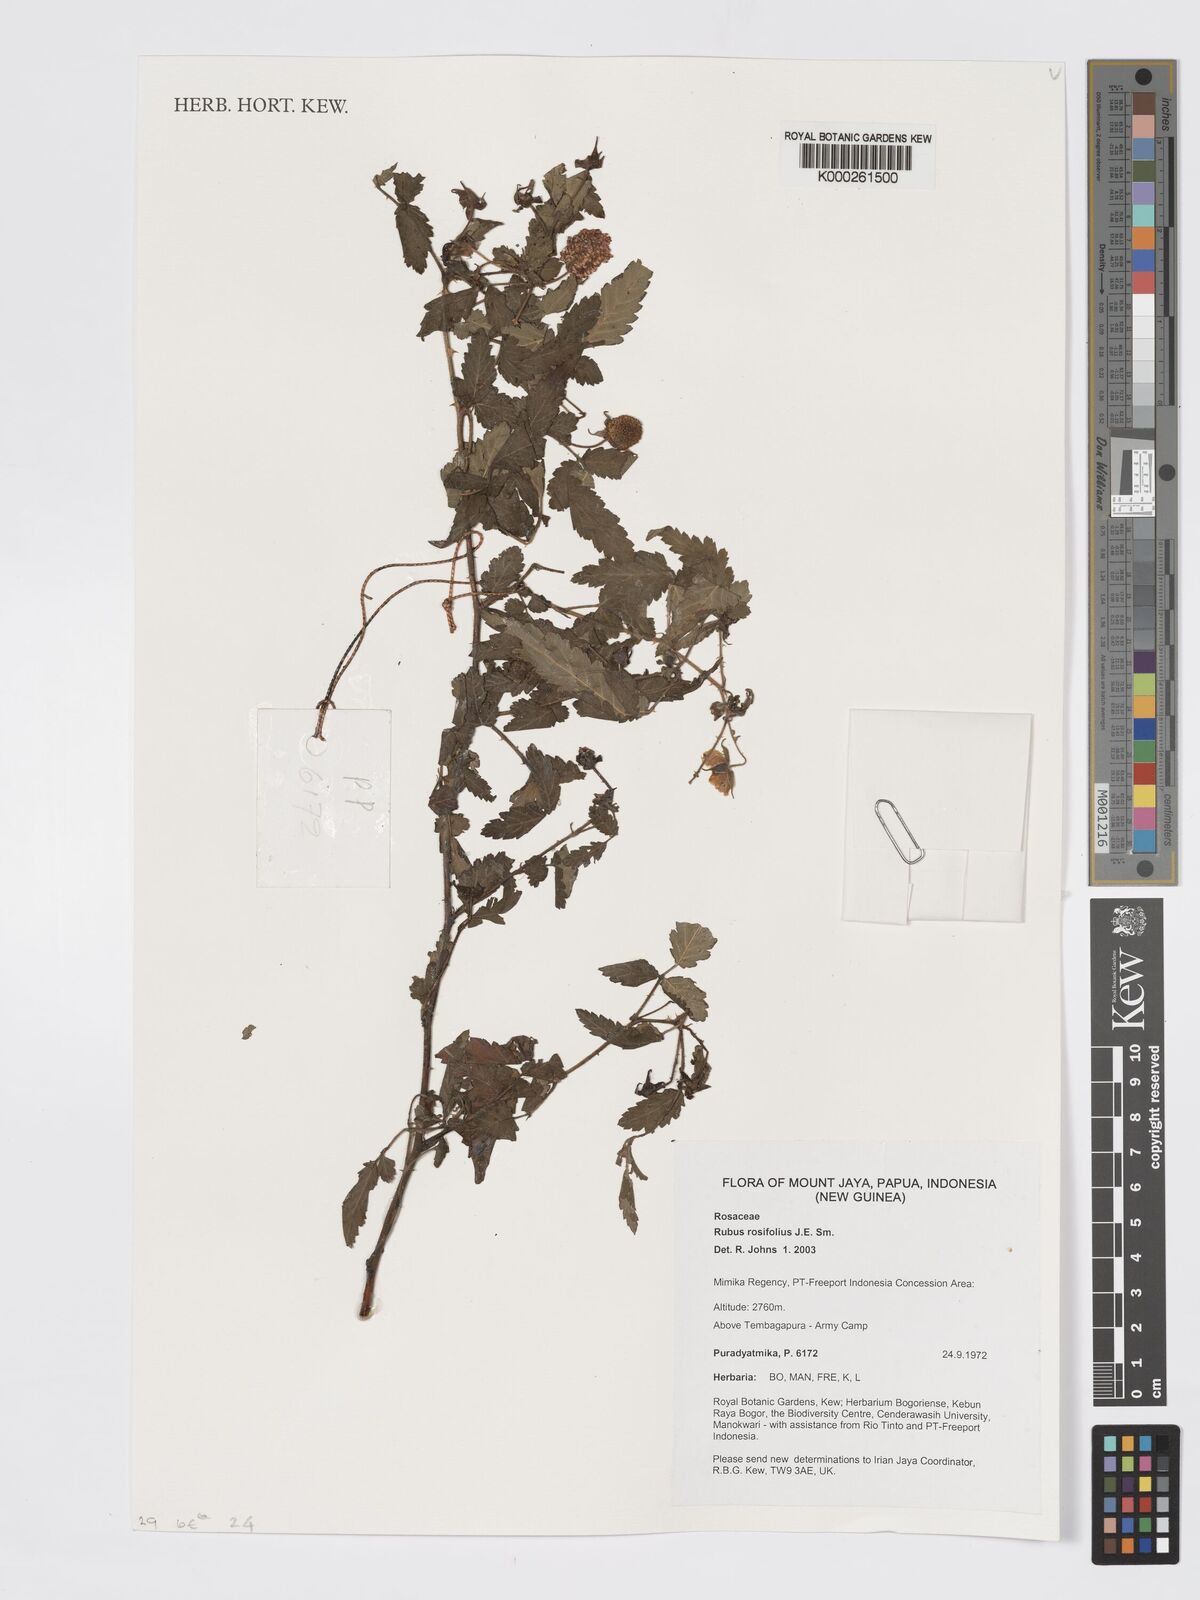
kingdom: Plantae
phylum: Tracheophyta
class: Magnoliopsida
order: Rosales
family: Rosaceae
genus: Rubus
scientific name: Rubus
